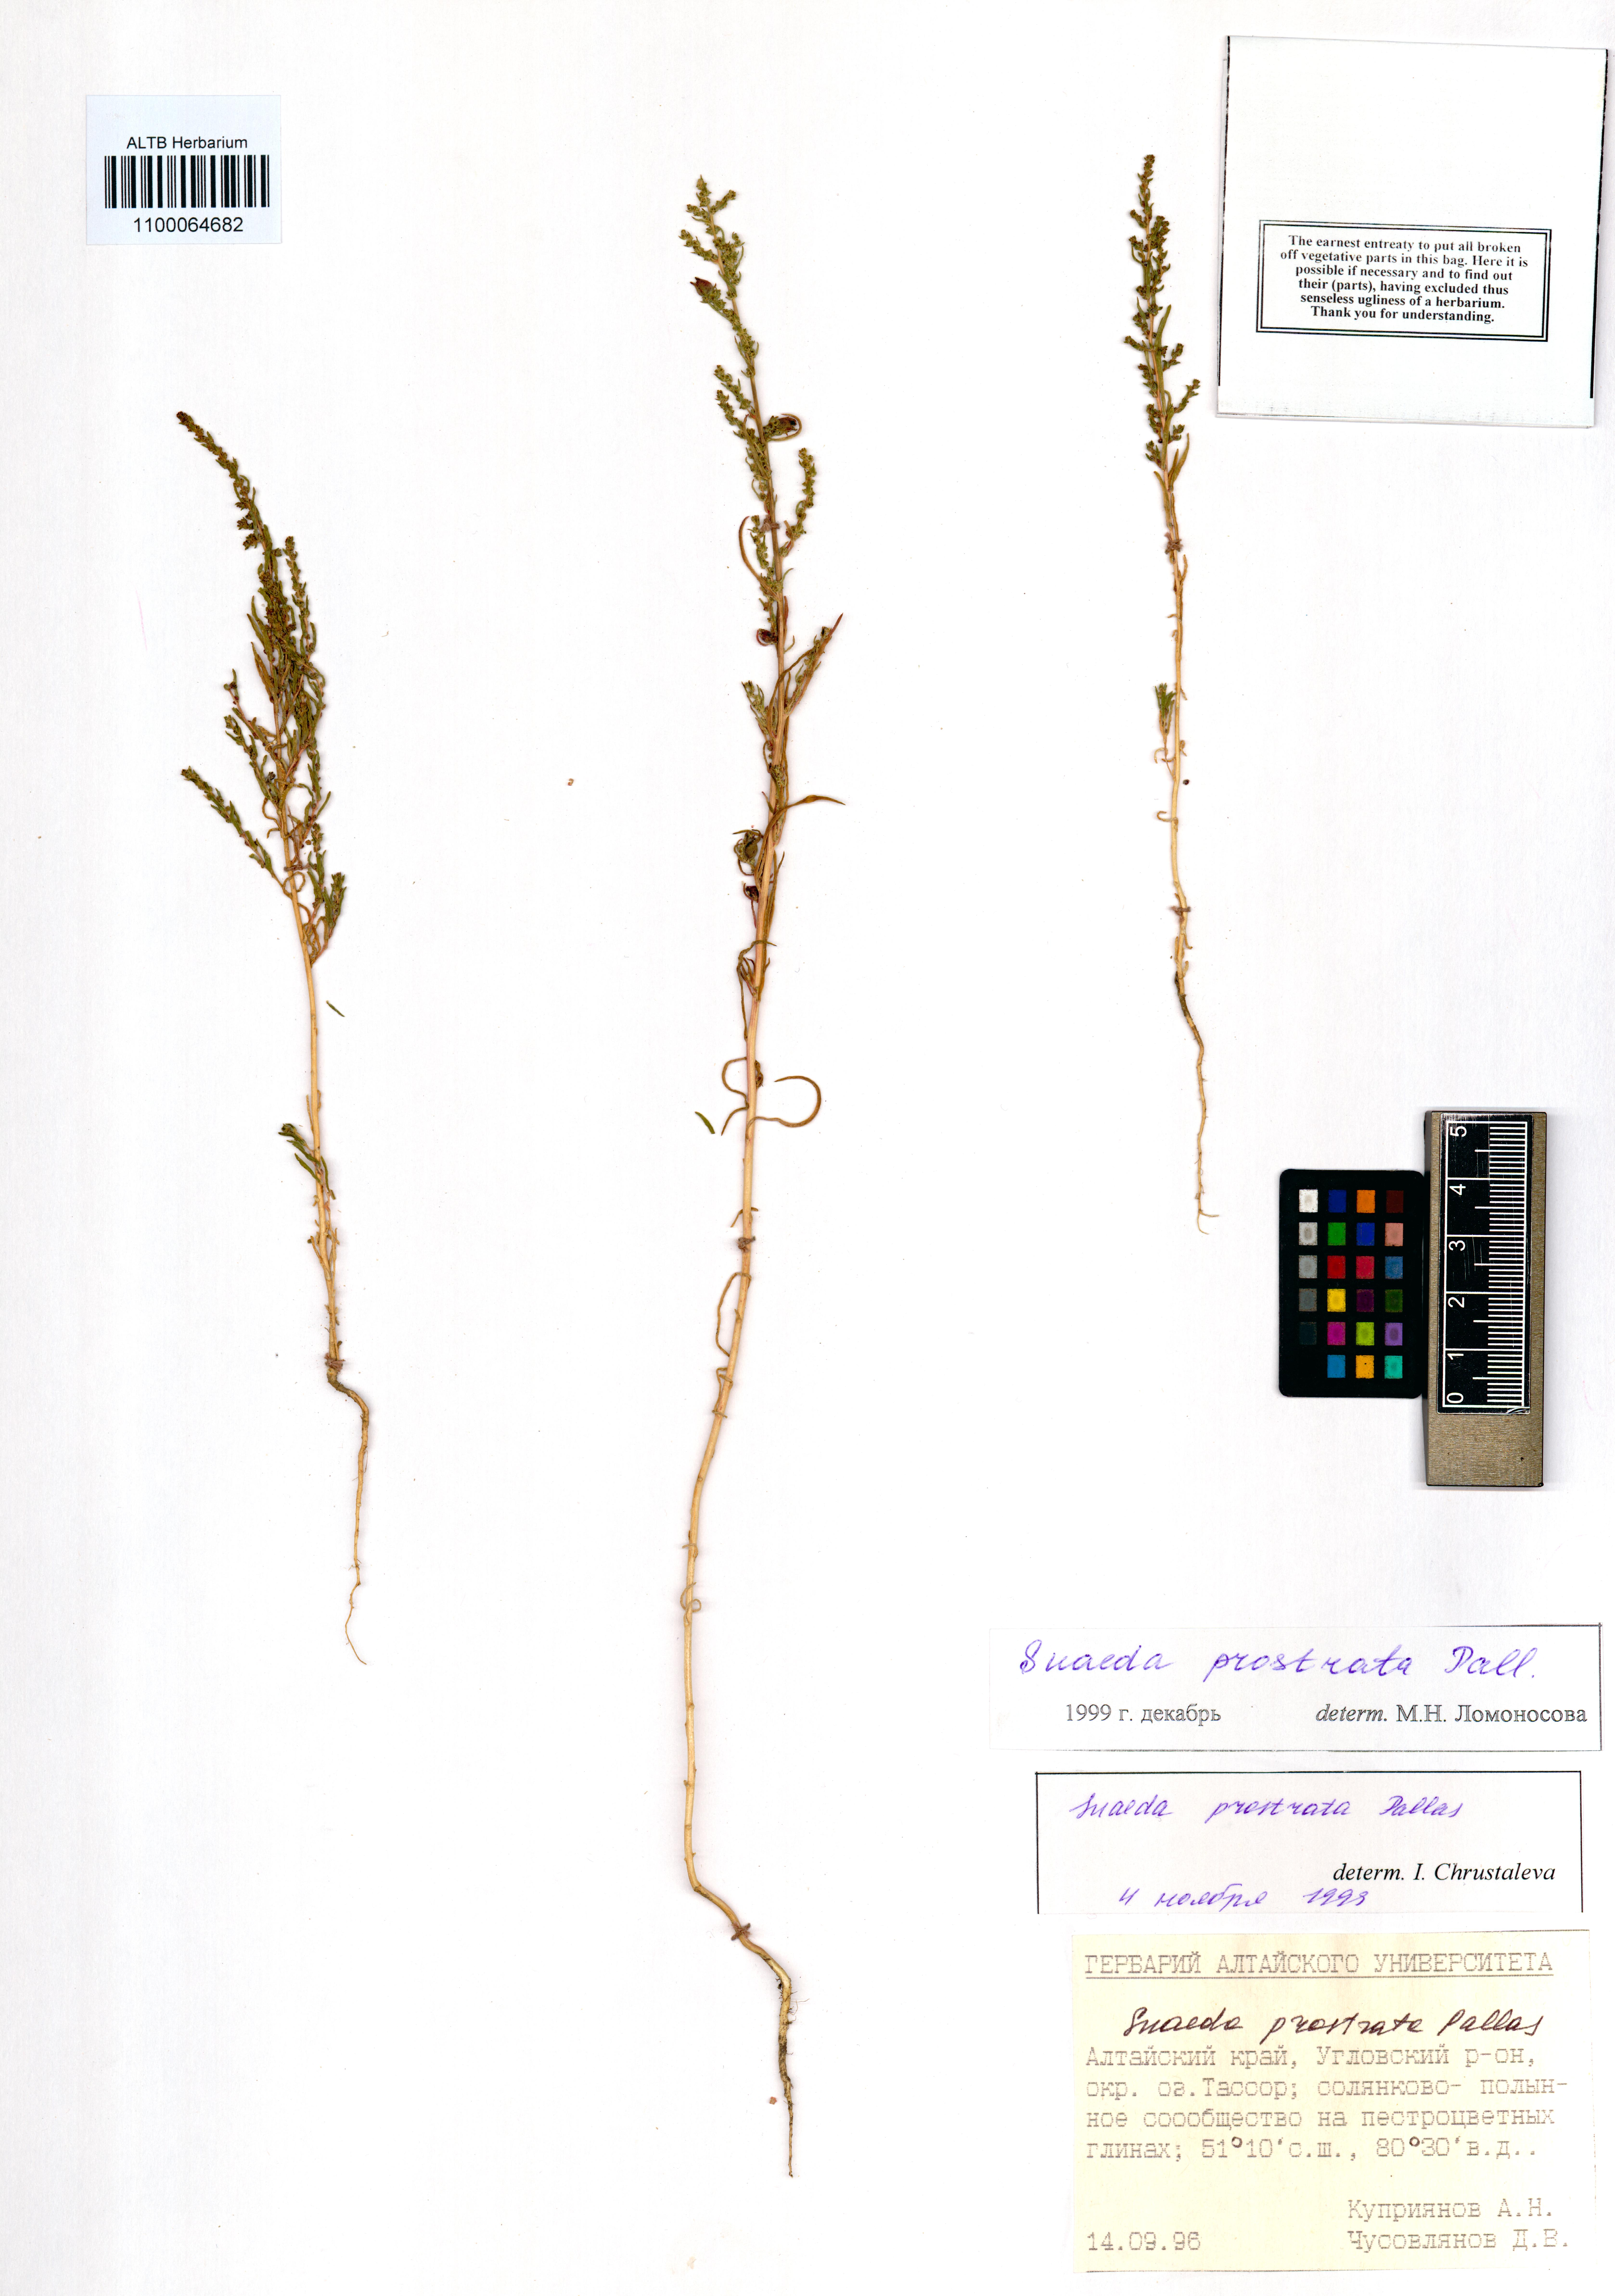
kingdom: Plantae
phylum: Tracheophyta
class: Magnoliopsida
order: Caryophyllales
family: Amaranthaceae
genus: Suaeda
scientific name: Suaeda prostrata
